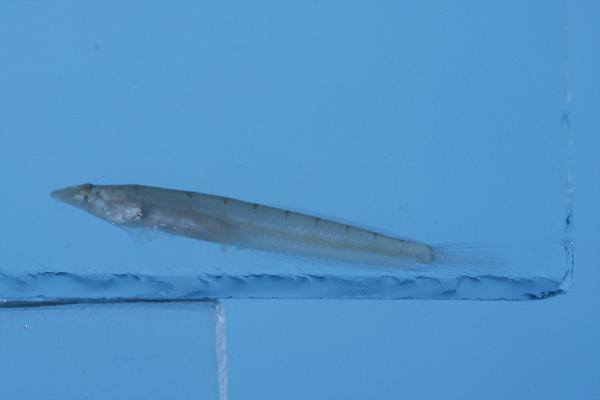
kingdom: Animalia
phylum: Chordata
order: Perciformes
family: Creediidae
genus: Limnichthys
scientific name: Limnichthys nitidus
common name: Donaldson's sandburrower
